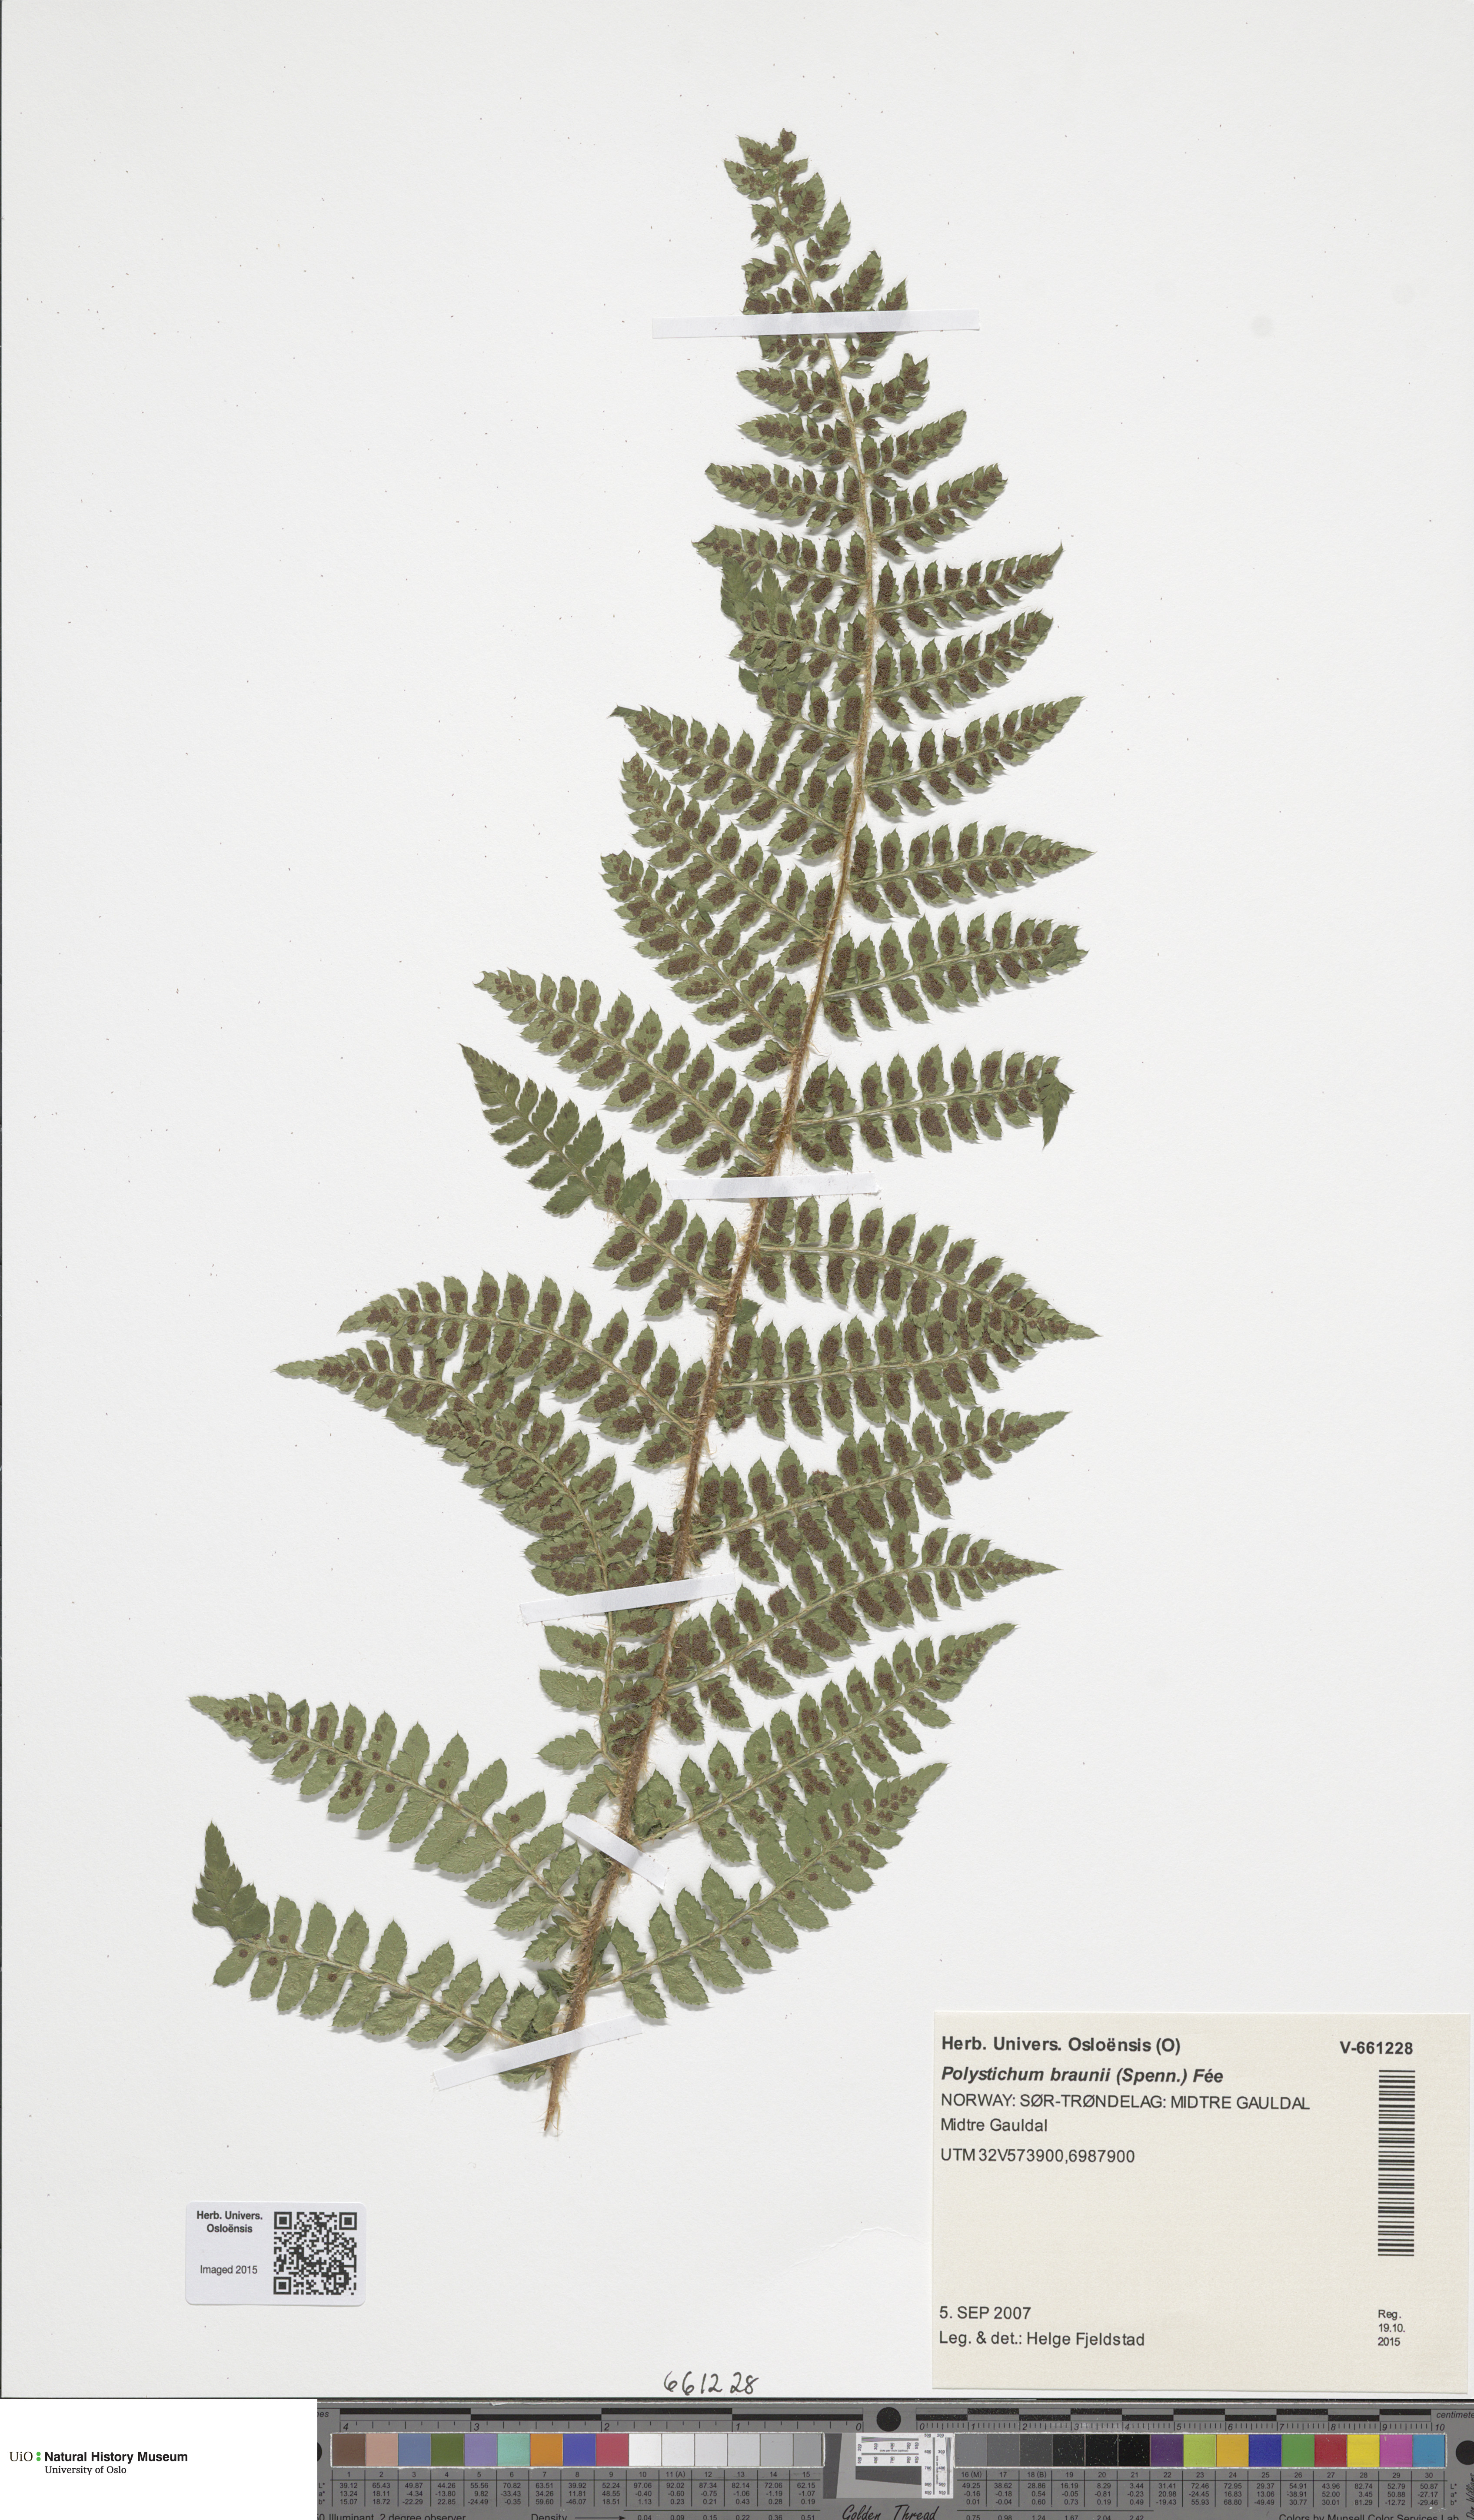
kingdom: Plantae
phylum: Tracheophyta
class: Polypodiopsida
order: Polypodiales
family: Dryopteridaceae
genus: Polystichum
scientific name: Polystichum braunii
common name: Braun's holly fern
